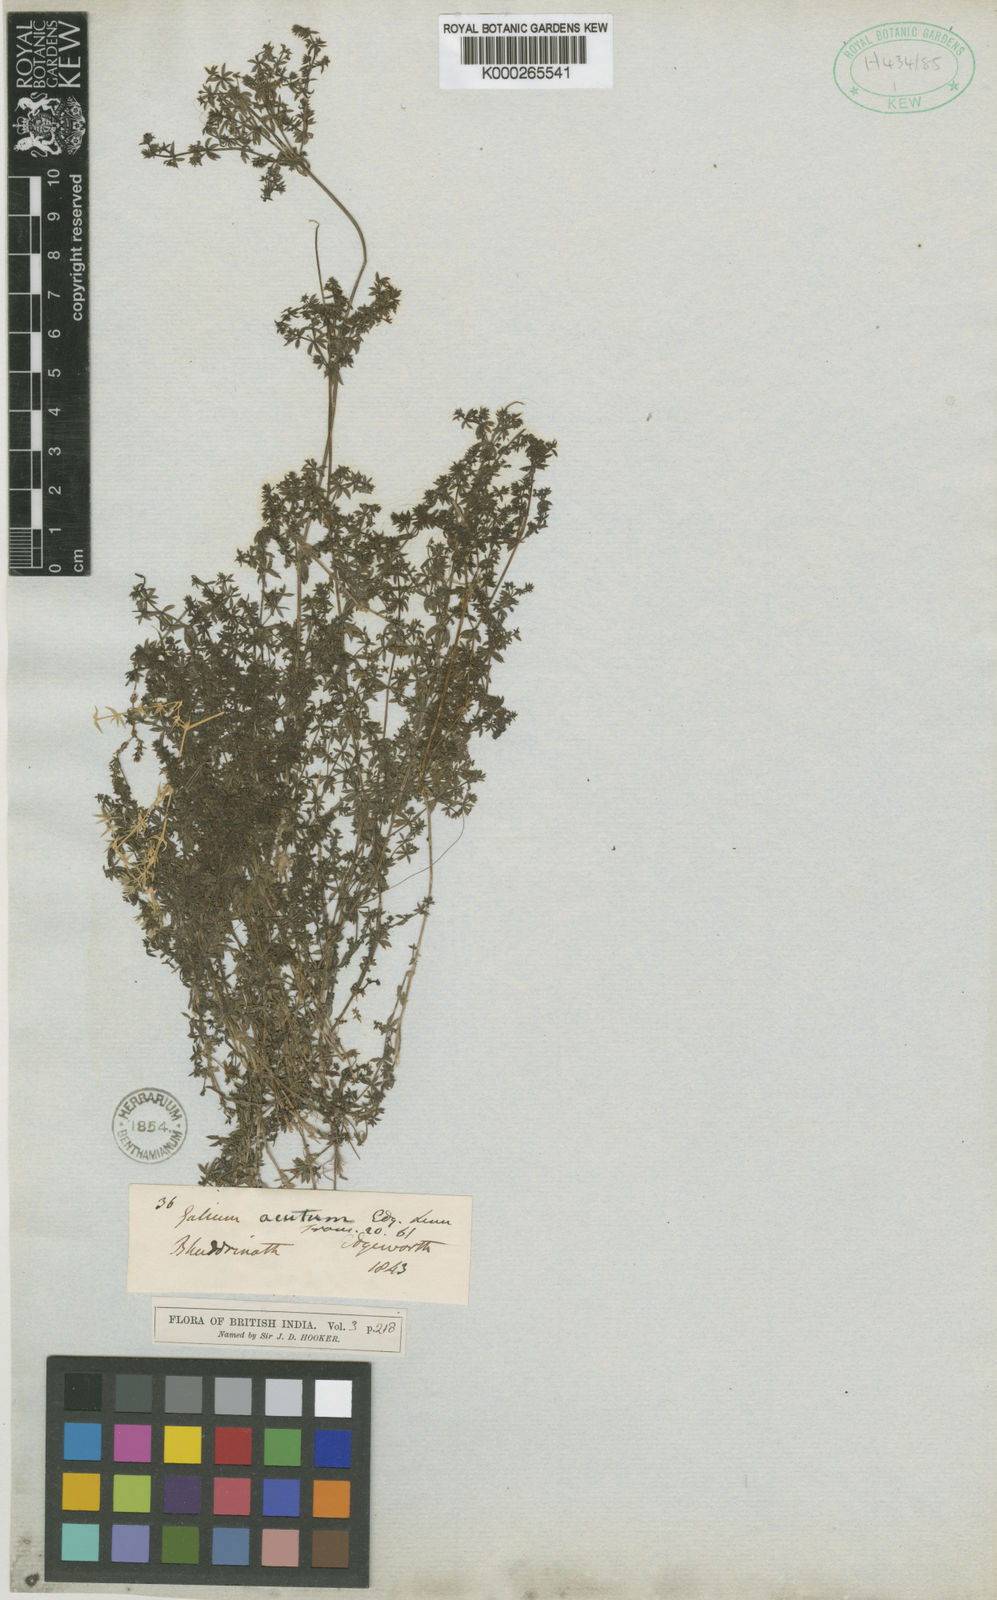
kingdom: Plantae
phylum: Tracheophyta
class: Magnoliopsida
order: Gentianales
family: Rubiaceae
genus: Galium
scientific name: Galium acutum
